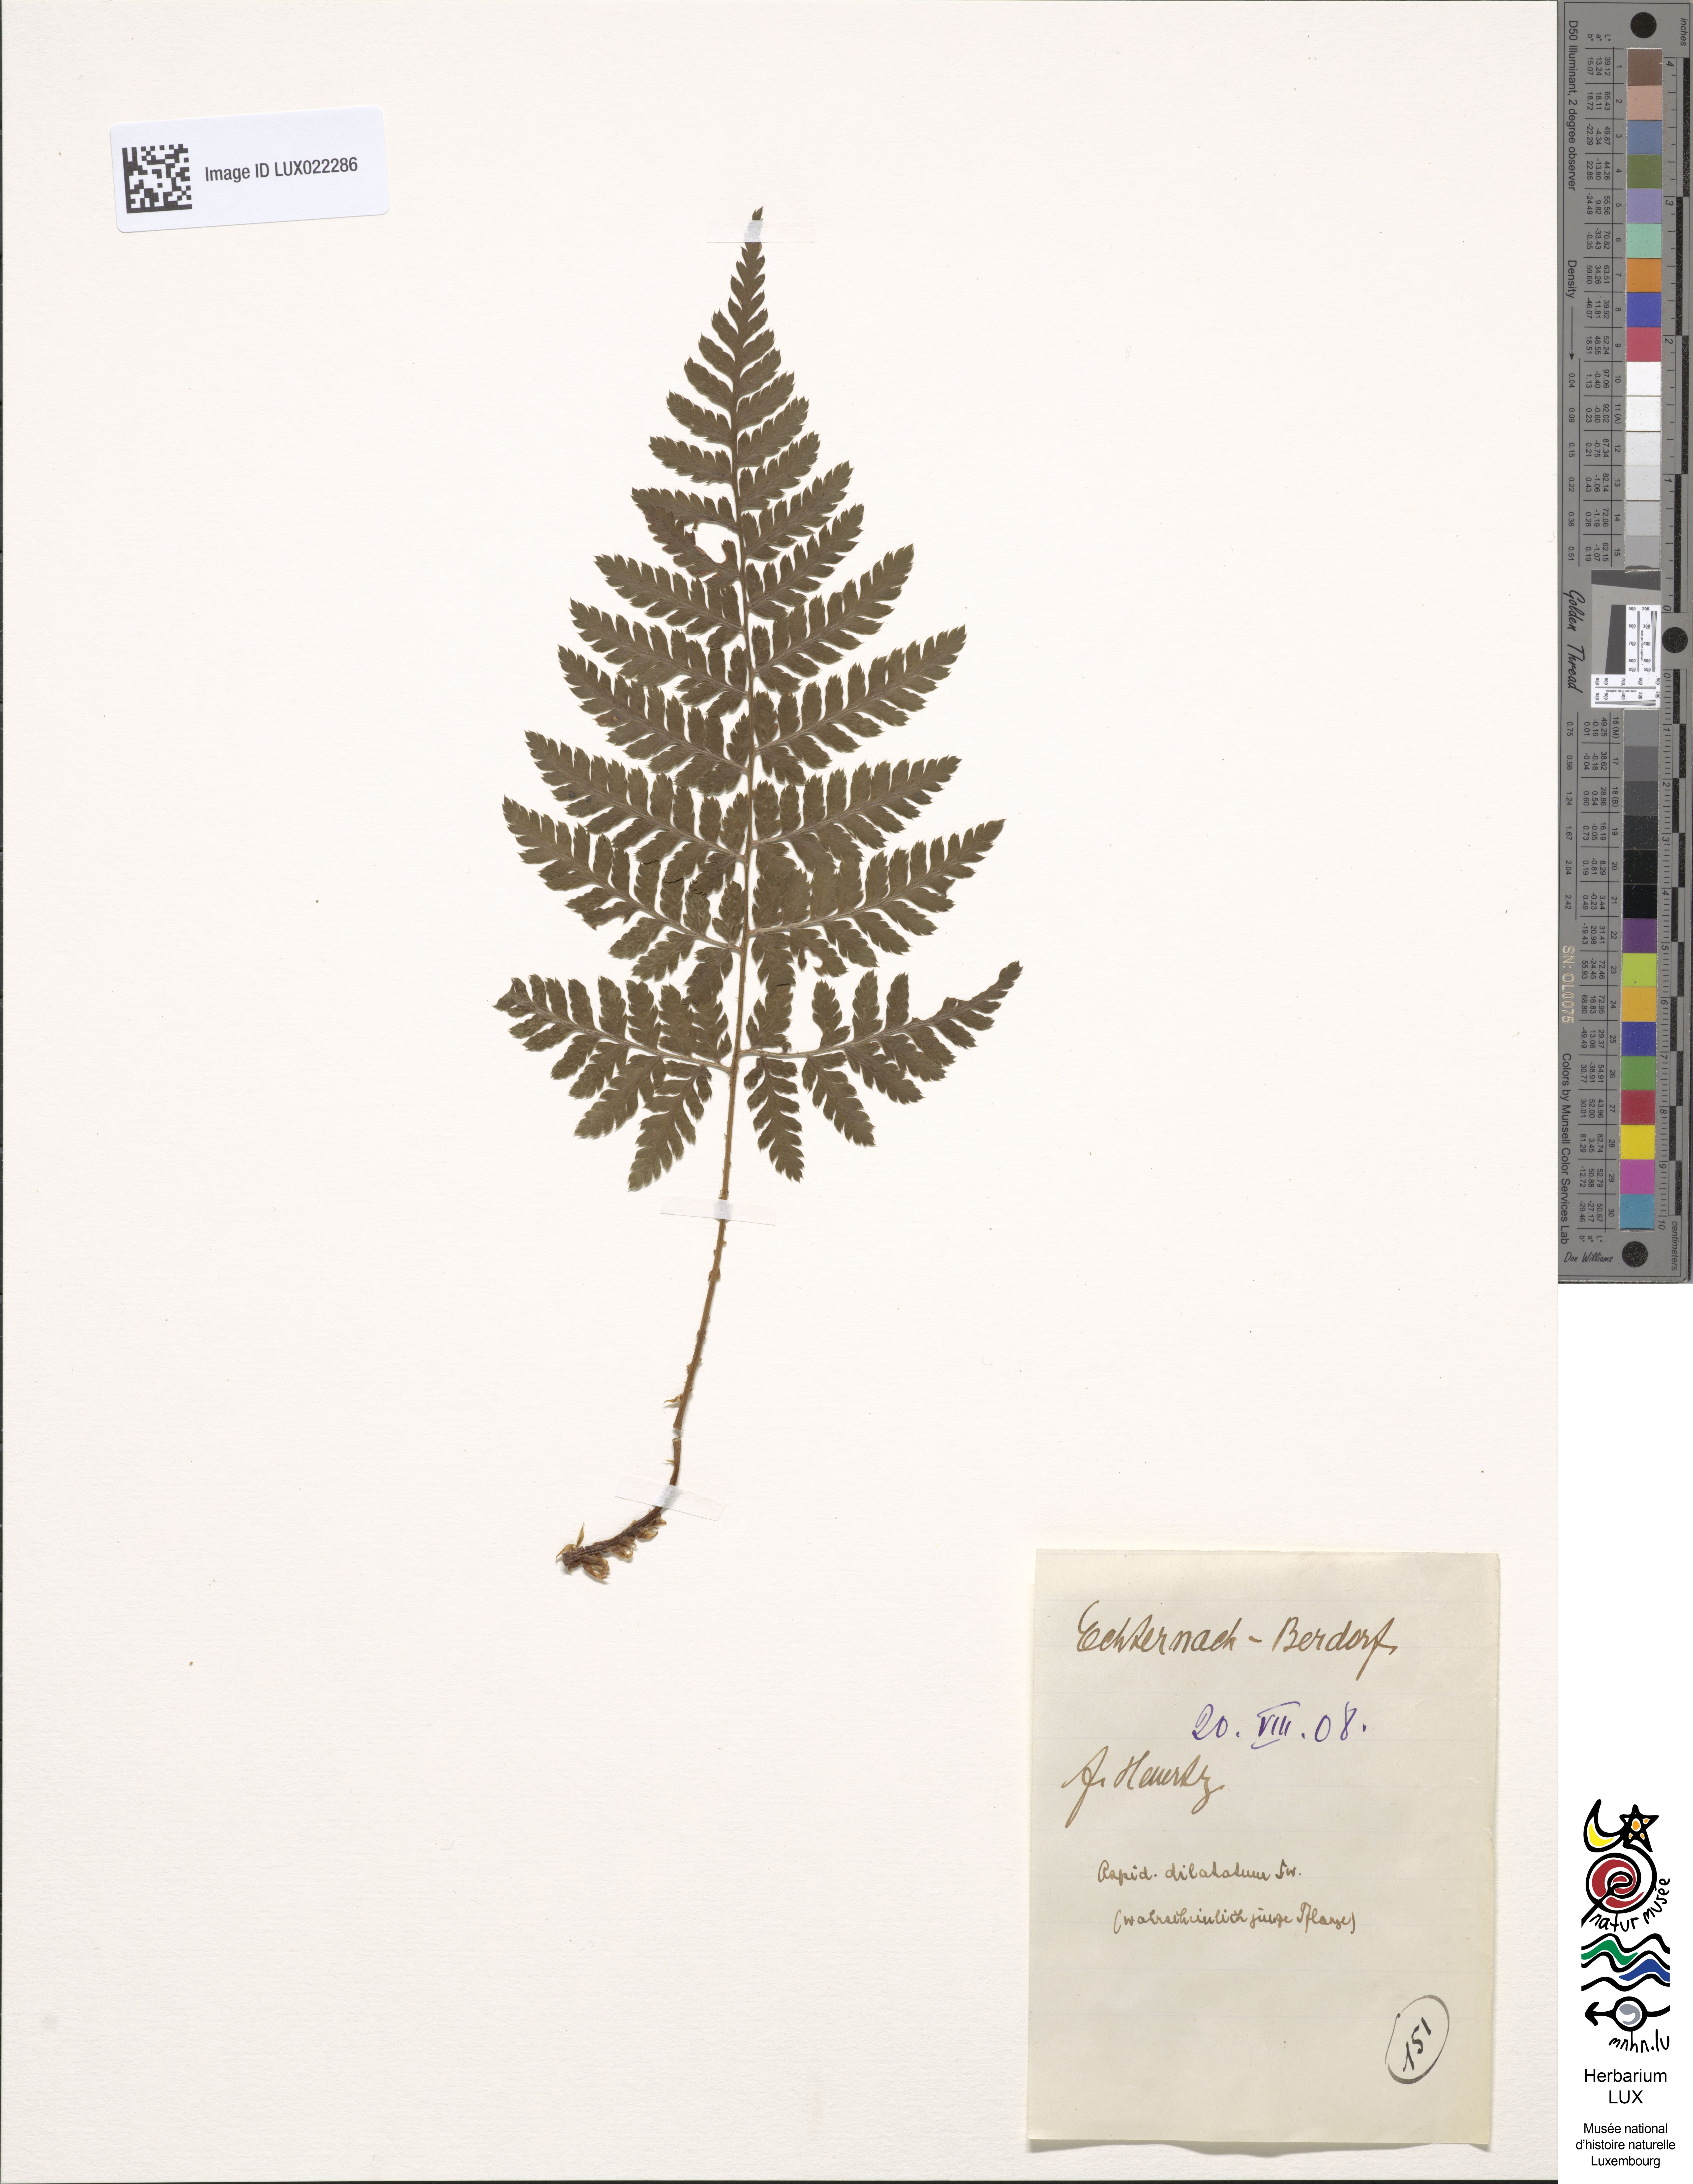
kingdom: Plantae
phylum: Tracheophyta
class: Polypodiopsida
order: Polypodiales
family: Dryopteridaceae
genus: Dryopteris
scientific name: Dryopteris dilatata
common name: Broad buckler-fern
